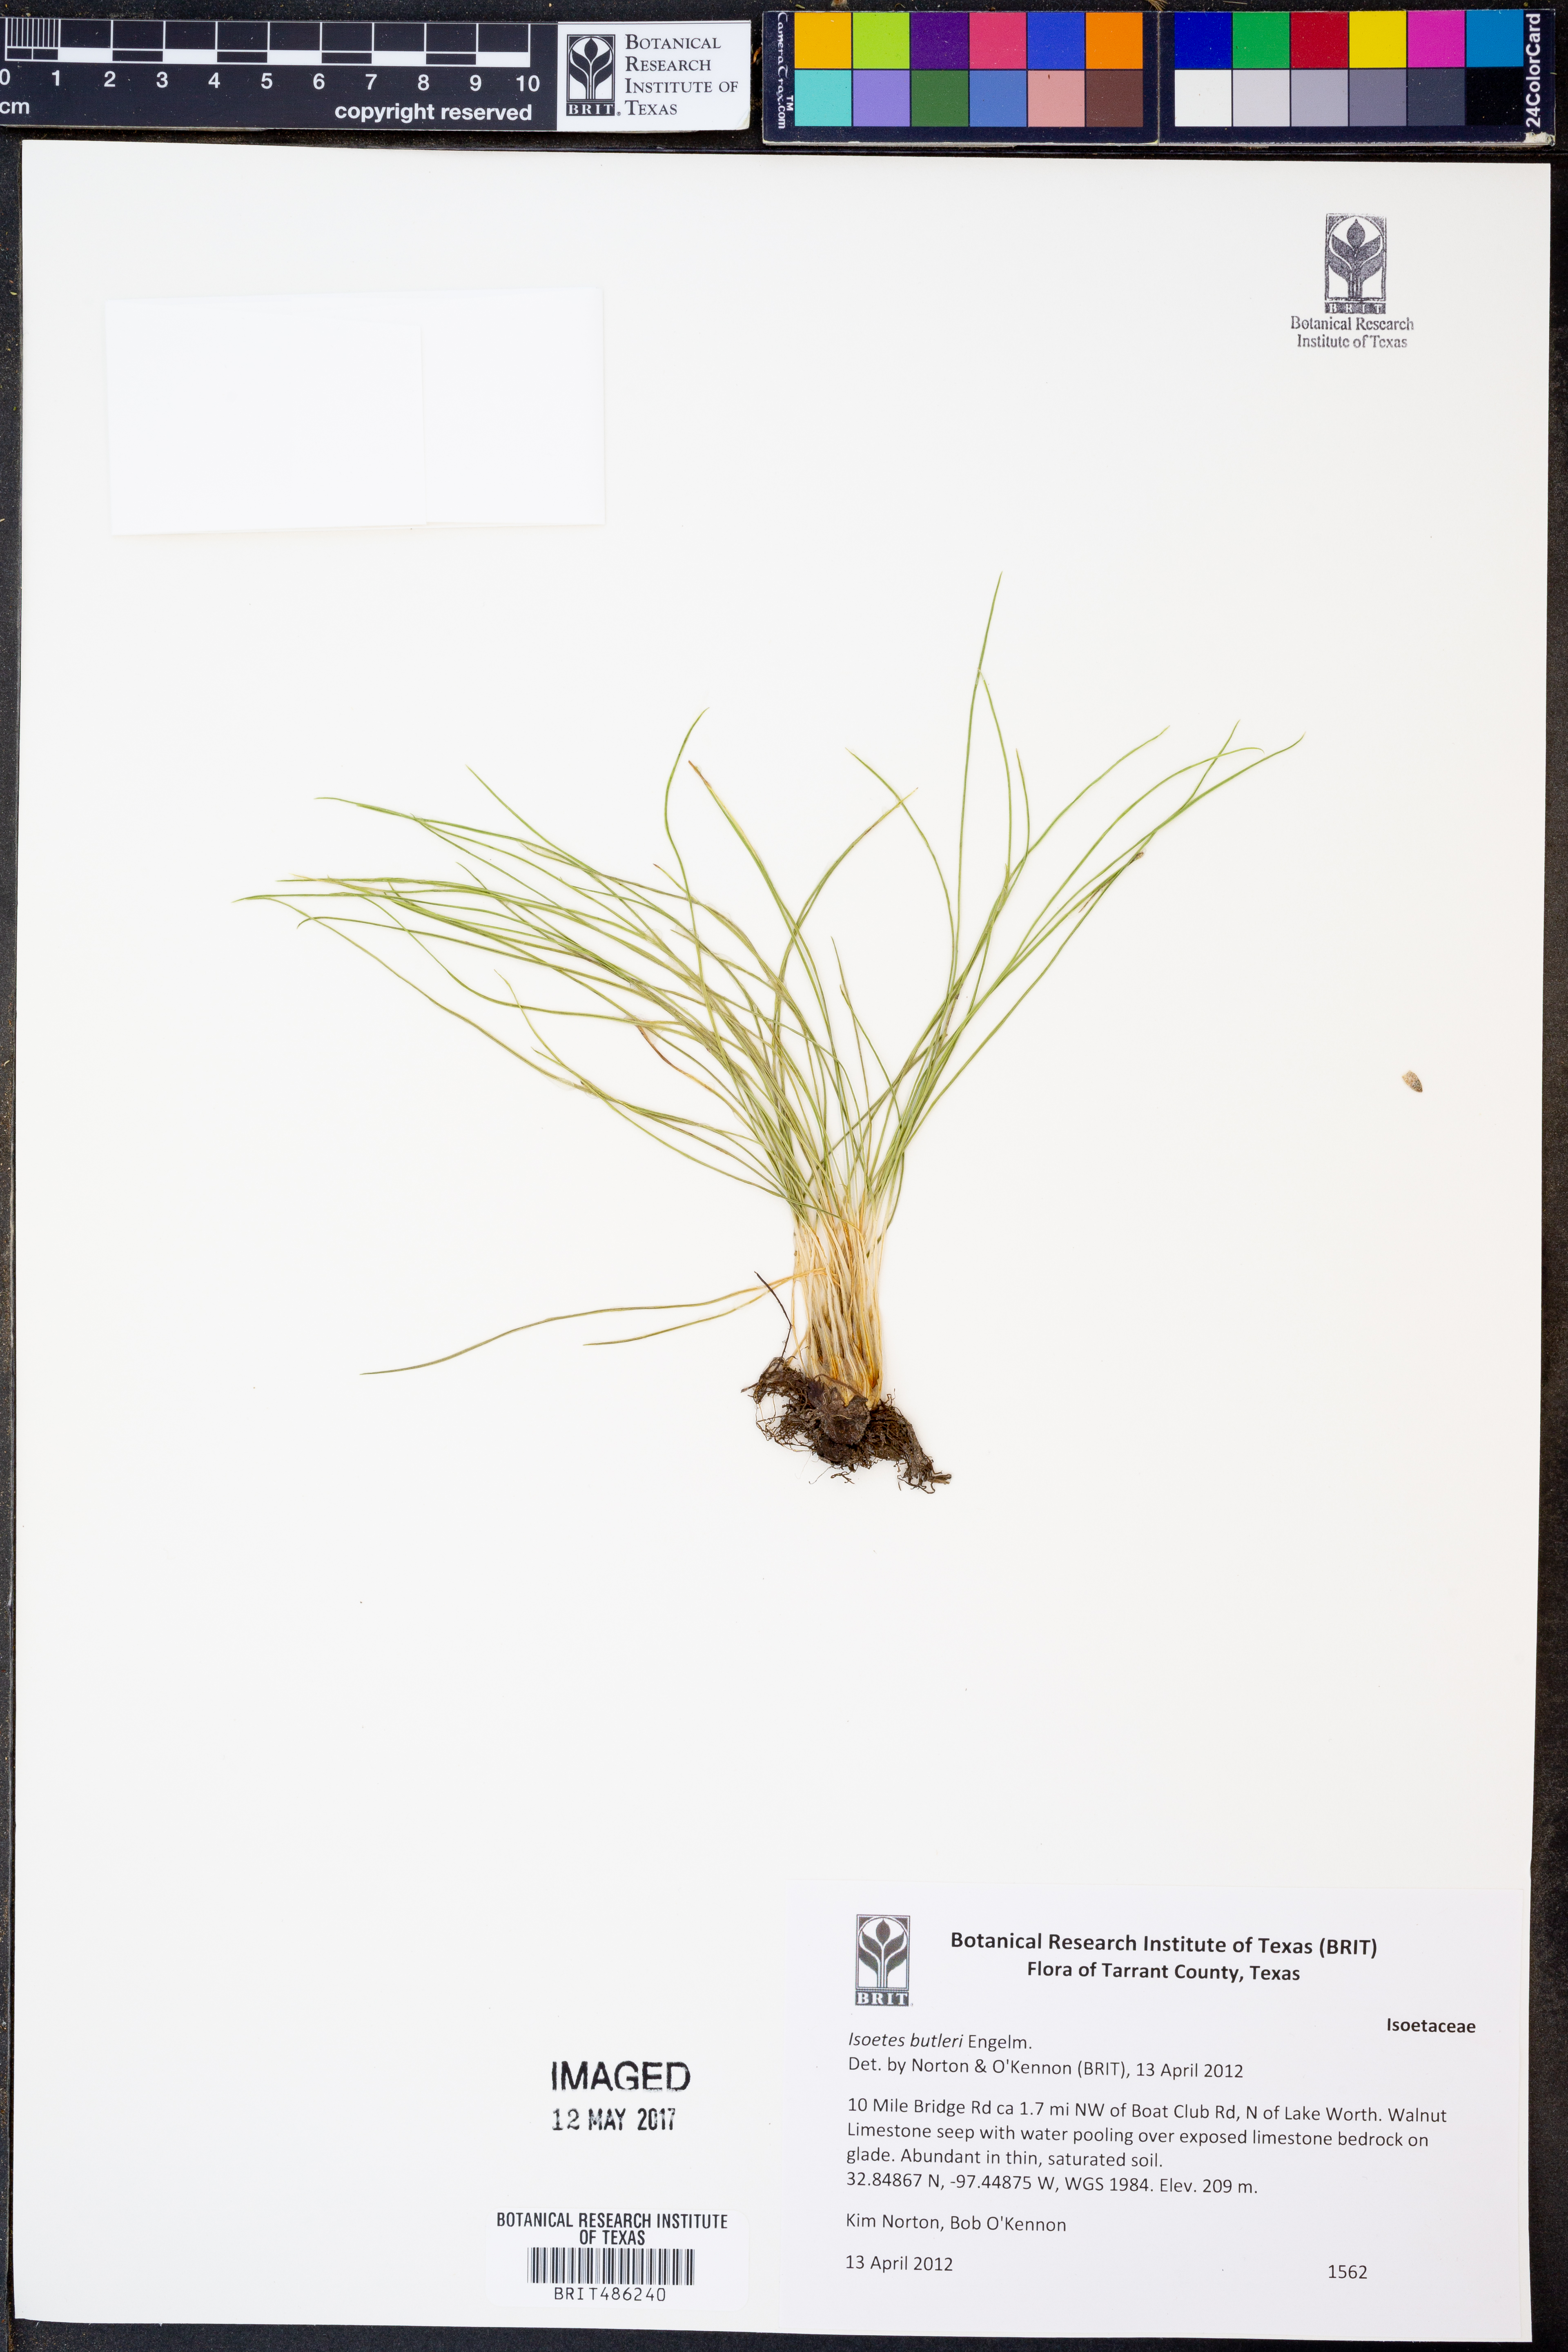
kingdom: Plantae
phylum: Tracheophyta
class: Lycopodiopsida
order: Isoetales
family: Isoetaceae
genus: Isoetes
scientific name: Isoetes butleri
